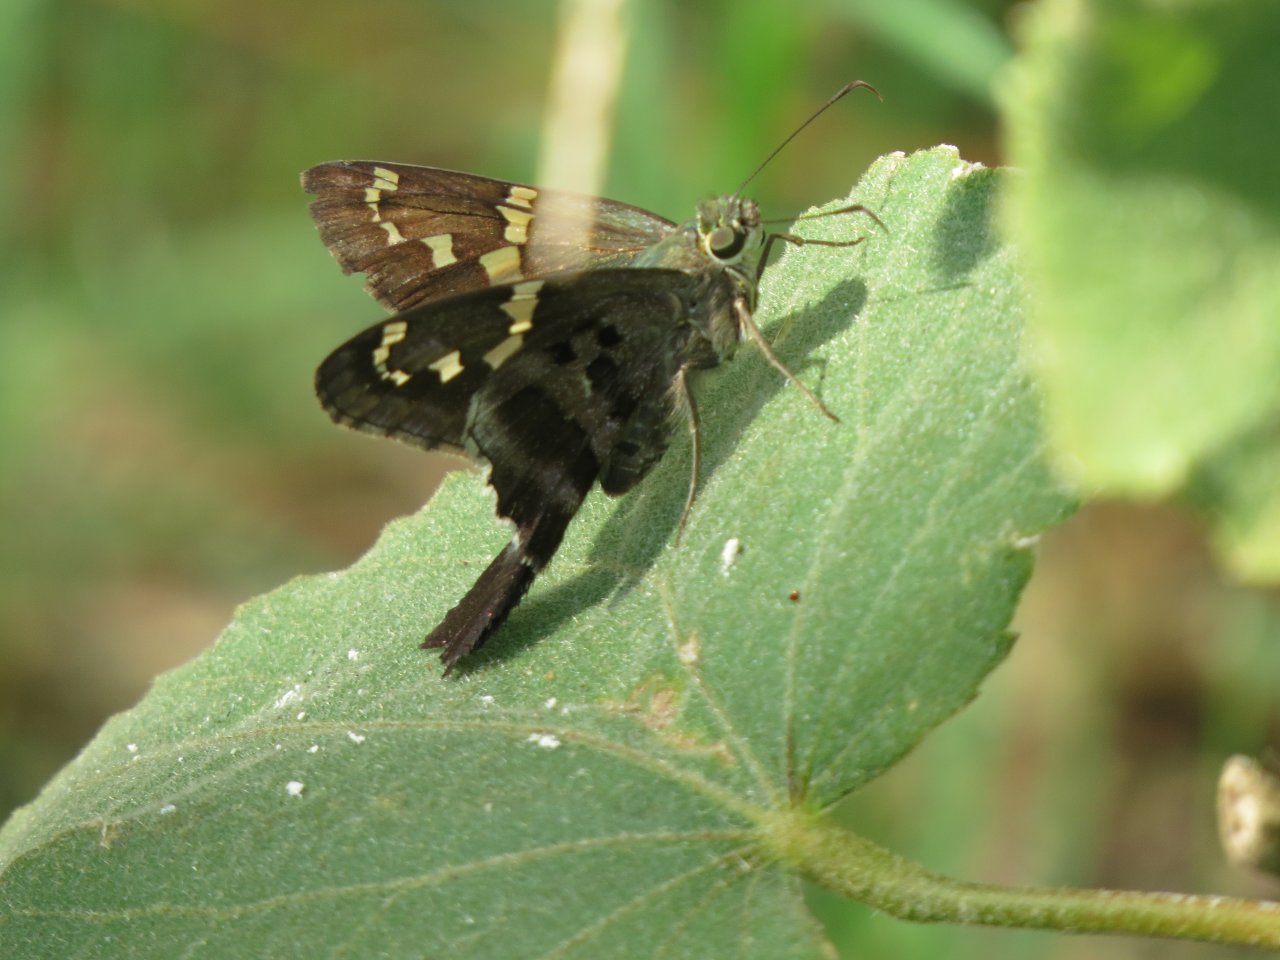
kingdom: Animalia
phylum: Arthropoda
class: Insecta
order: Lepidoptera
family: Hesperiidae
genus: Urbanus
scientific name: Urbanus proteus
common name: Long-tailed Skipper
